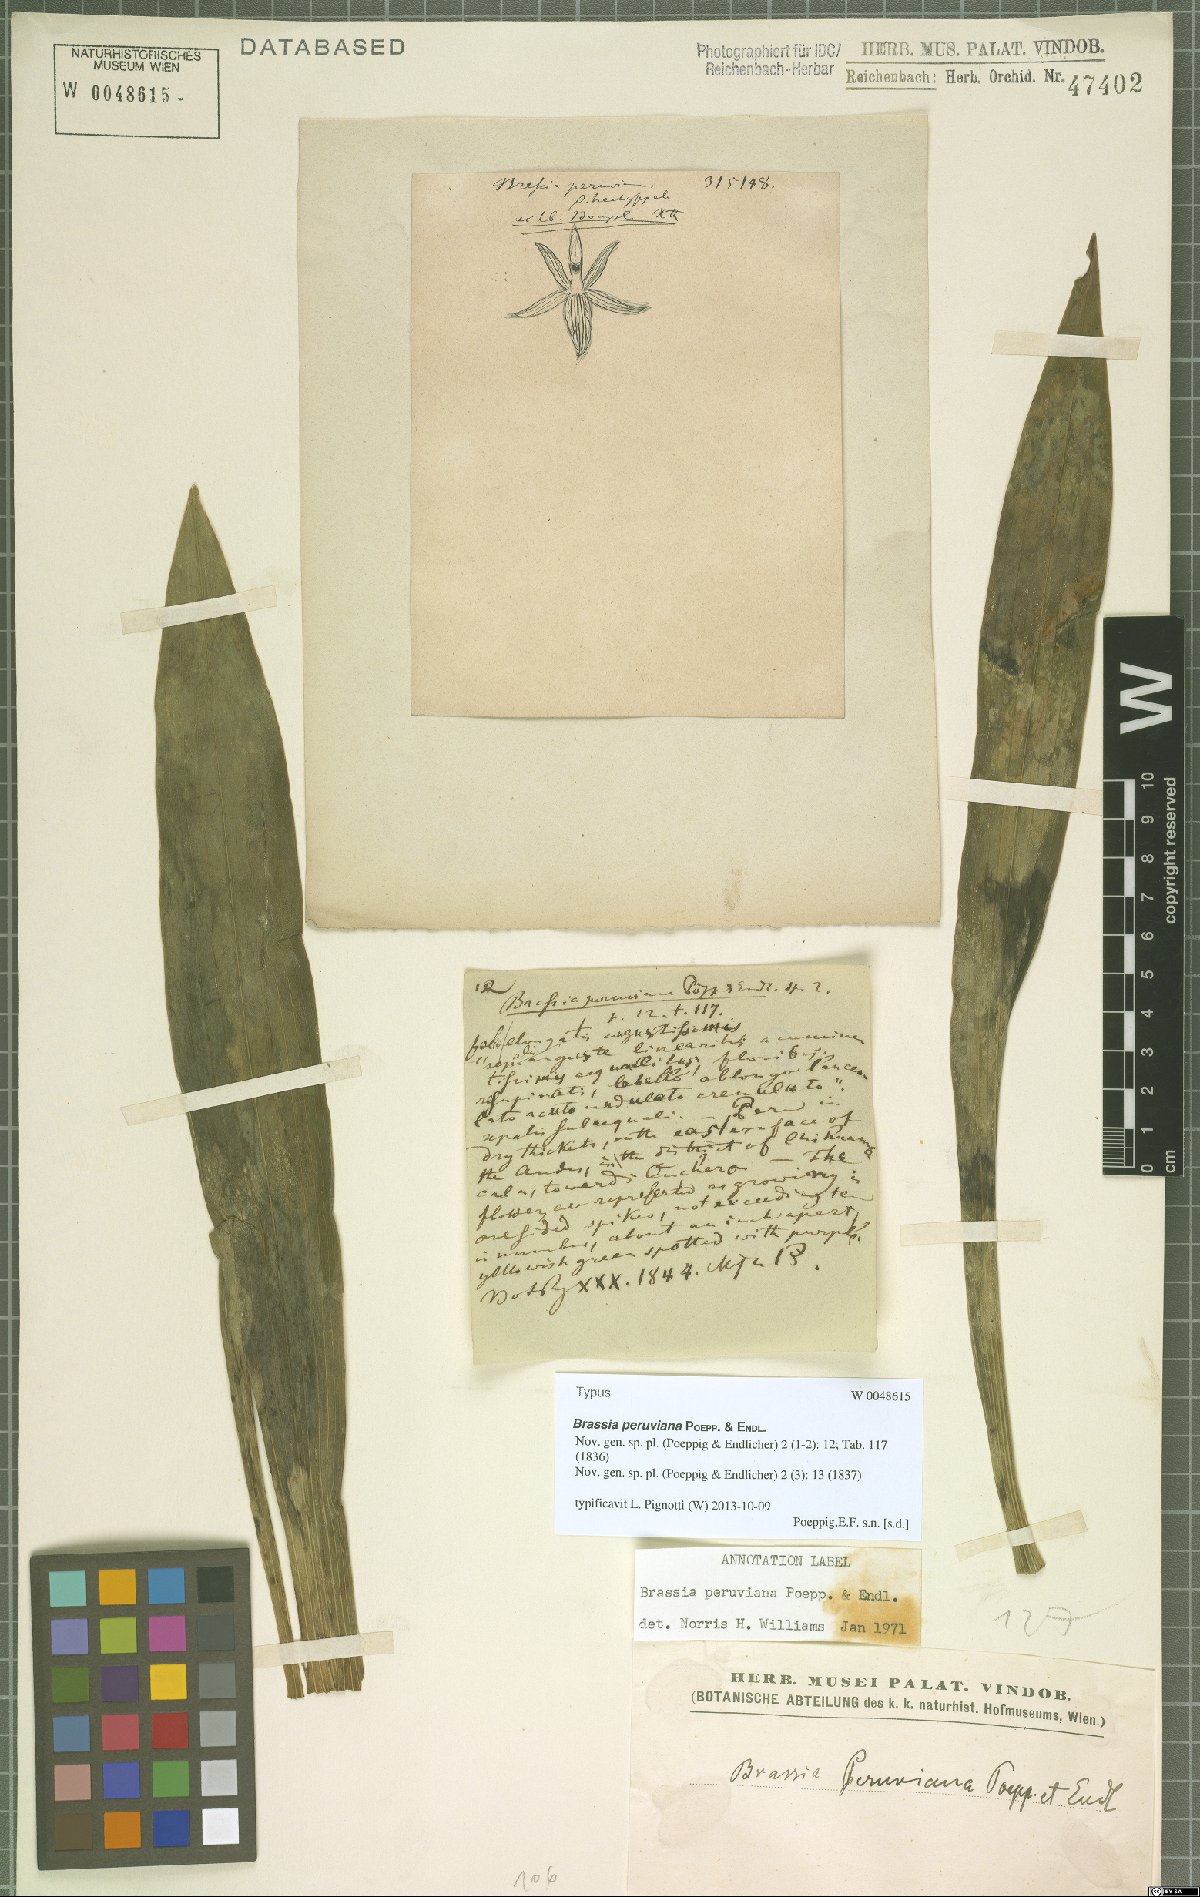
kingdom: Plantae
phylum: Tracheophyta
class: Liliopsida
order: Asparagales
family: Orchidaceae
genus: Brassia
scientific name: Brassia peruviana
